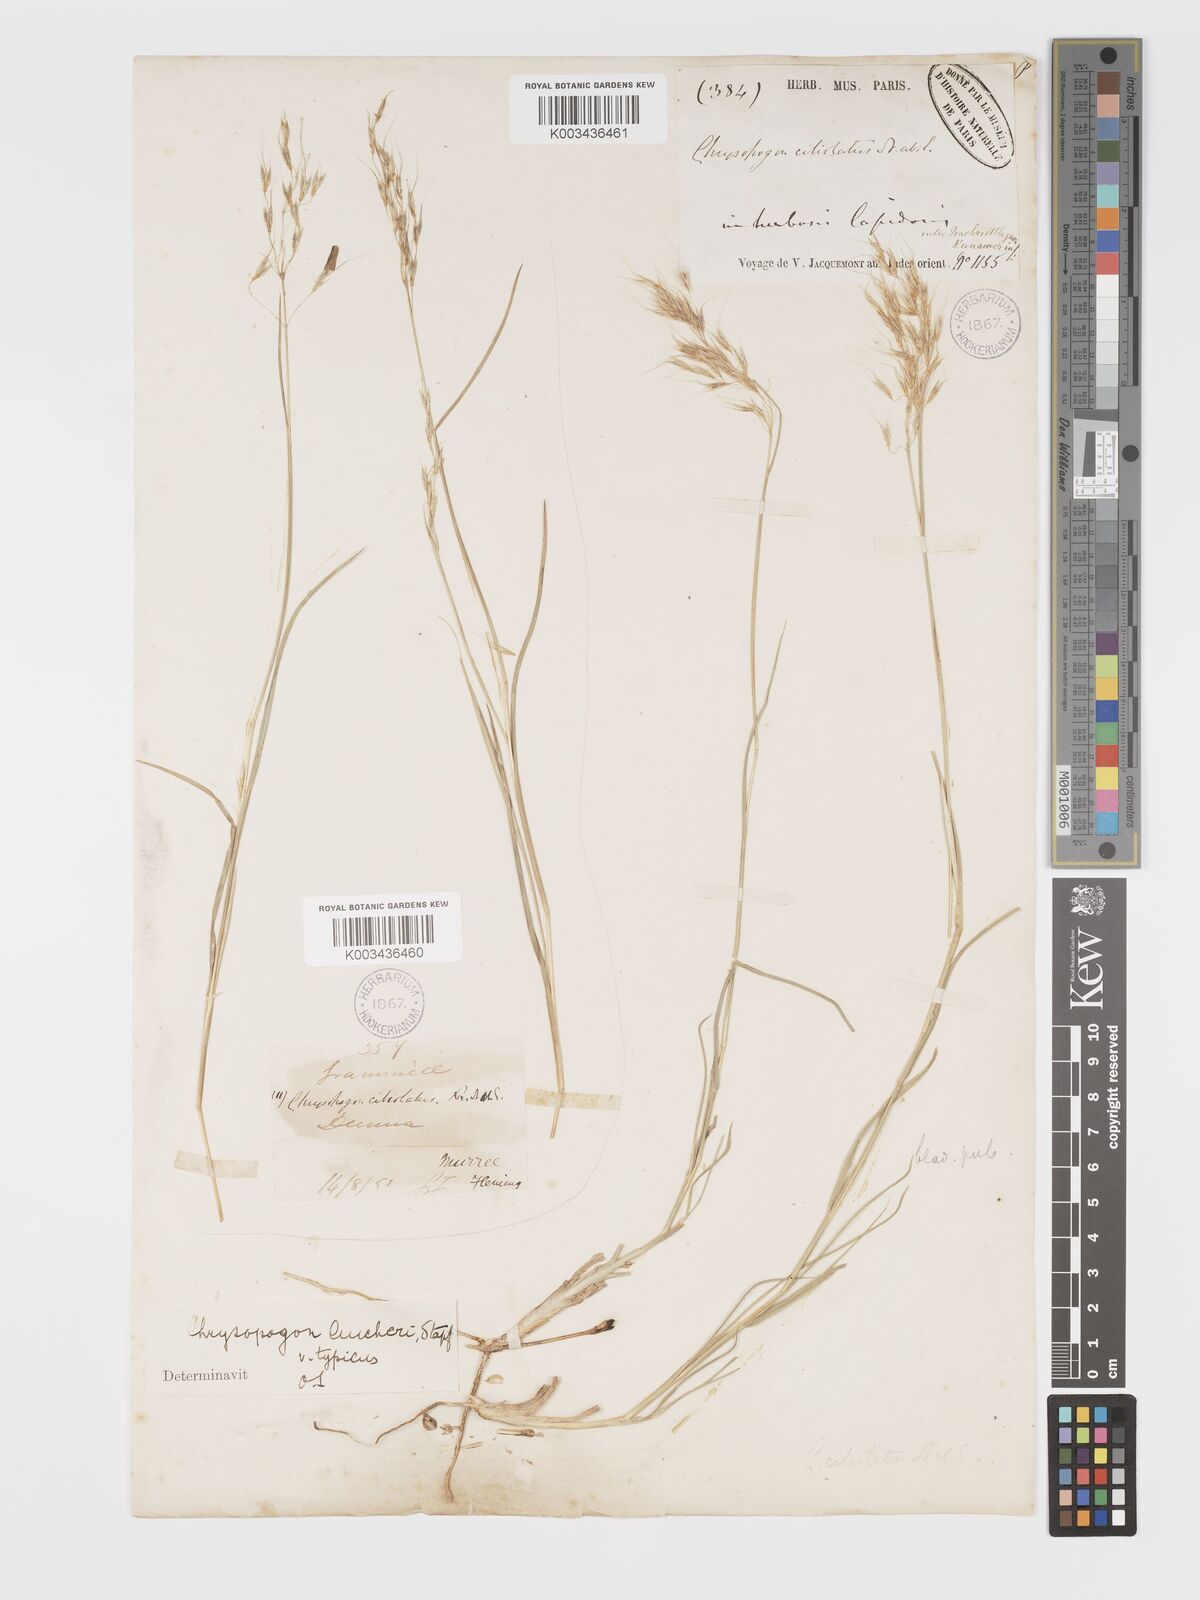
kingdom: Plantae
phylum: Tracheophyta
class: Liliopsida
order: Poales
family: Poaceae
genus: Chrysopogon
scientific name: Chrysopogon aucheri
